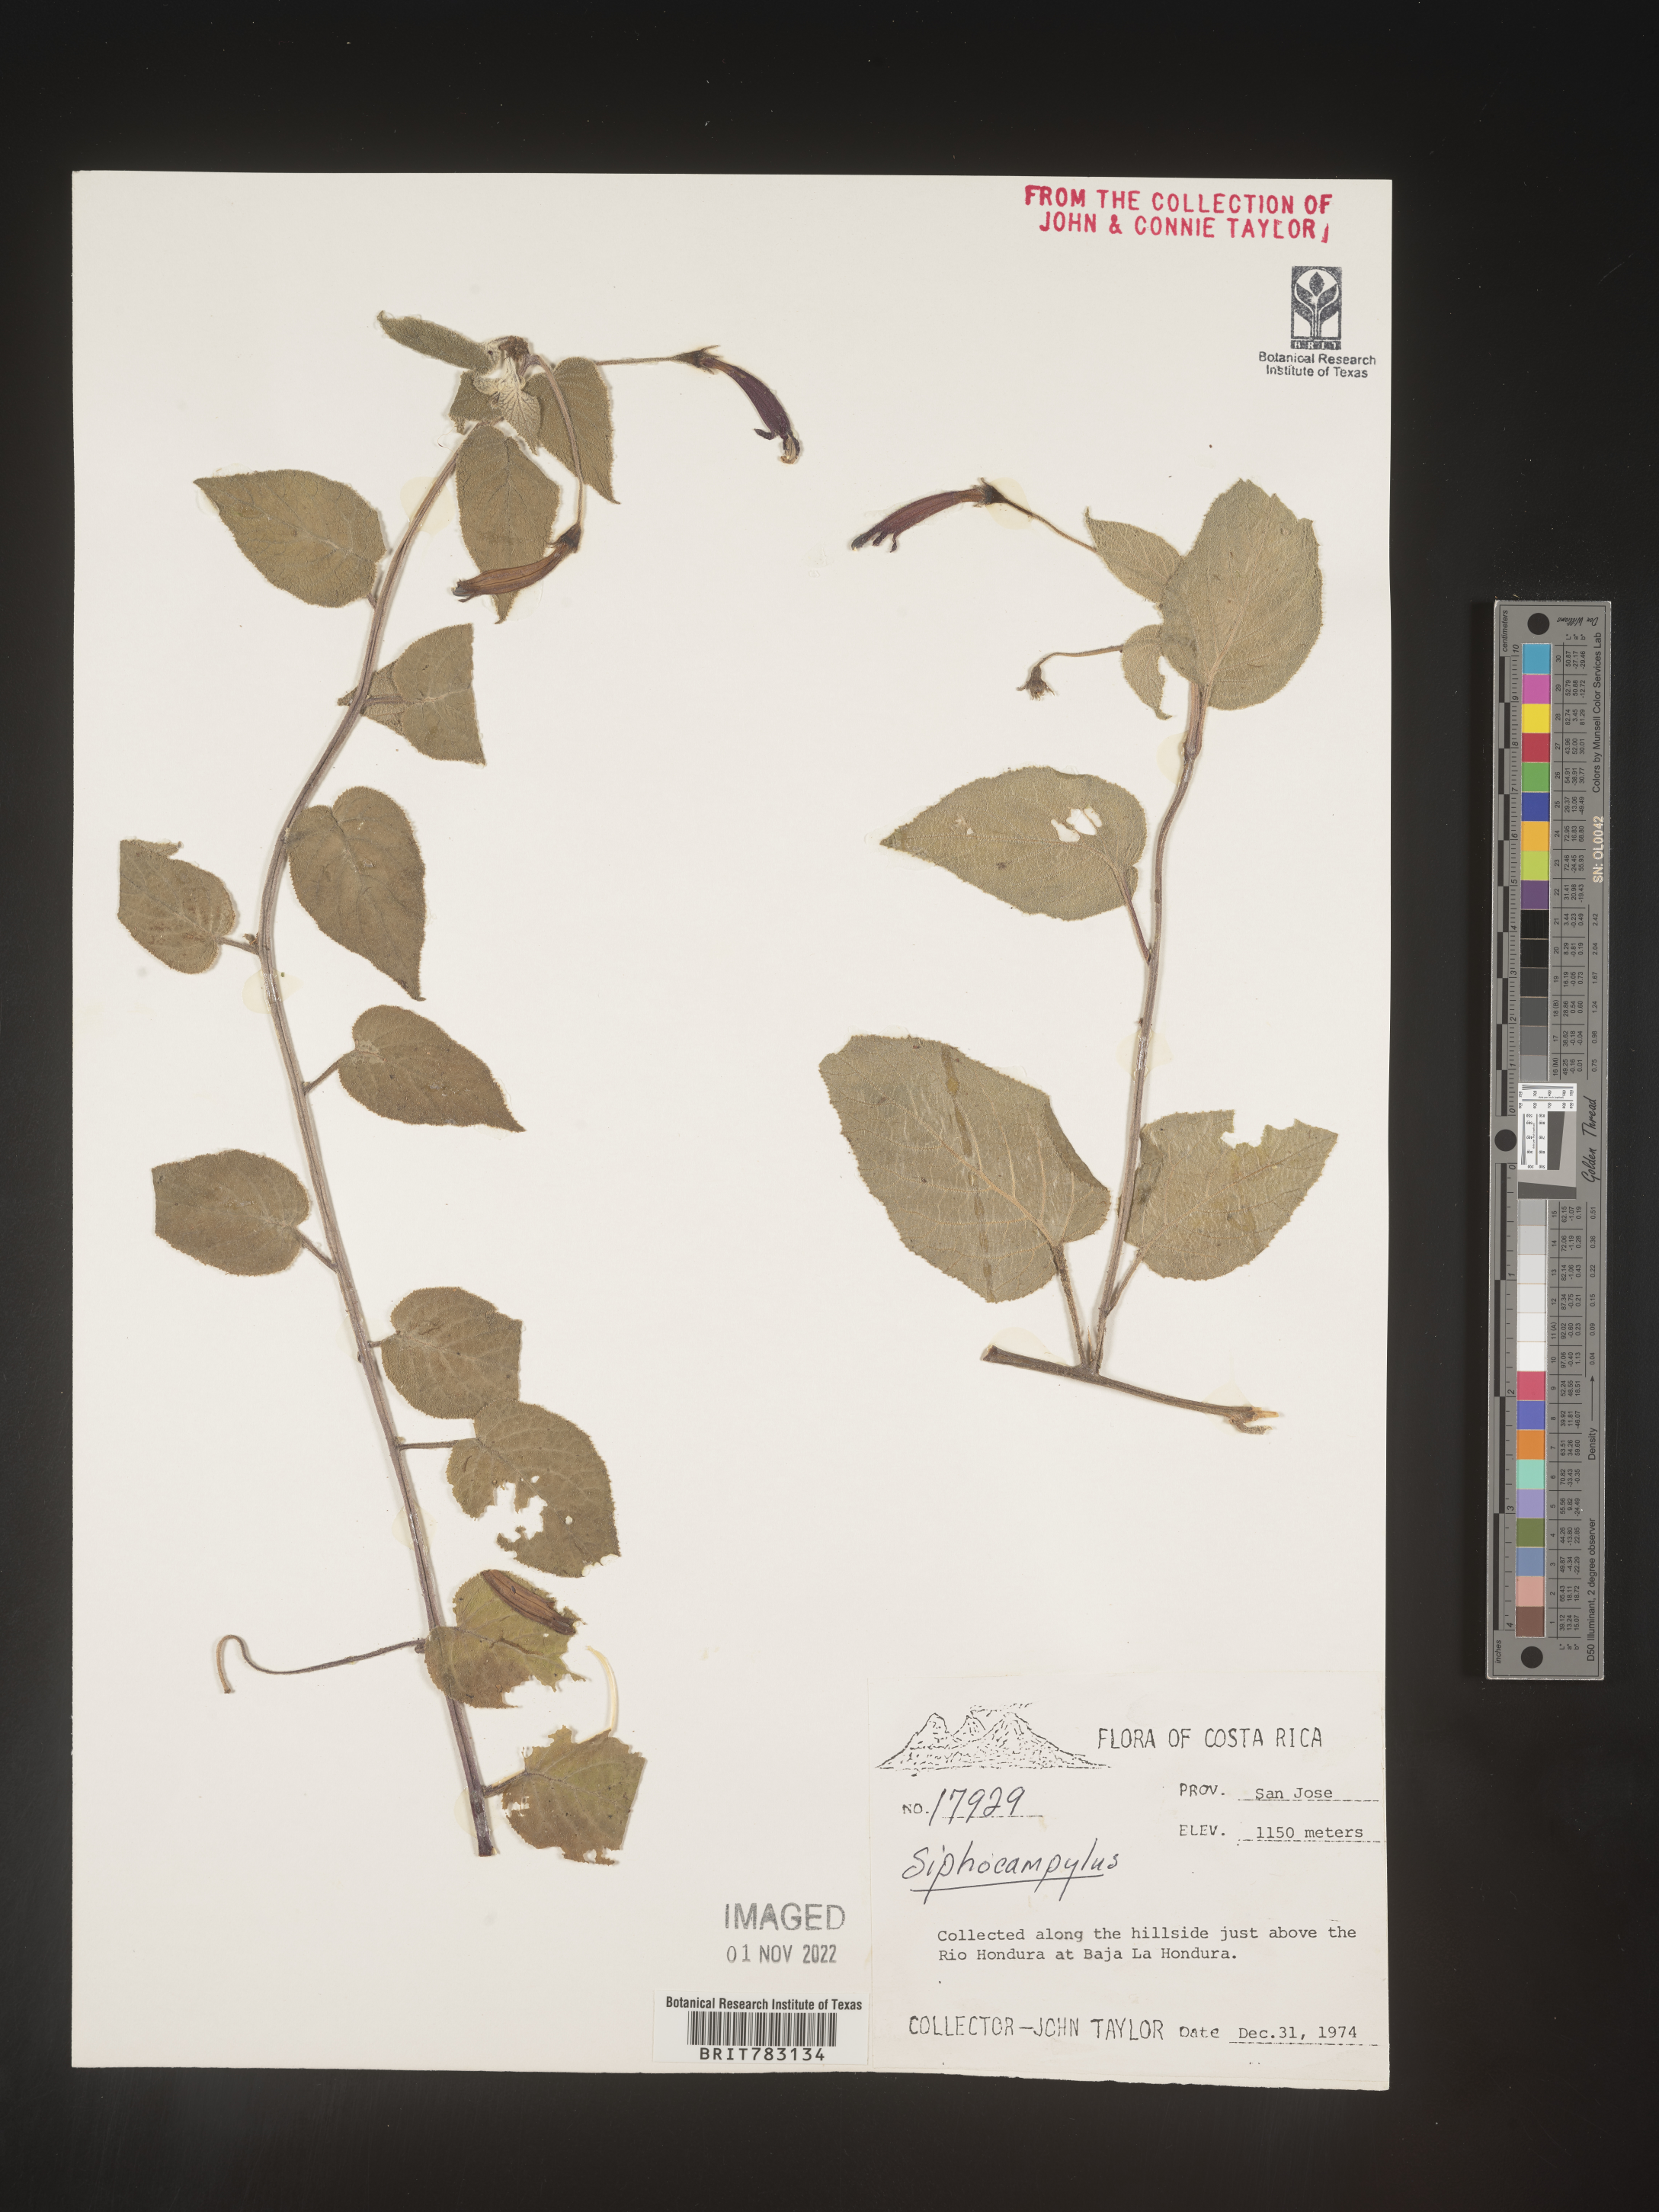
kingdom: Plantae
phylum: Tracheophyta
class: Magnoliopsida
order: Asterales
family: Campanulaceae
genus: Siphocampylus
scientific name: Siphocampylus
